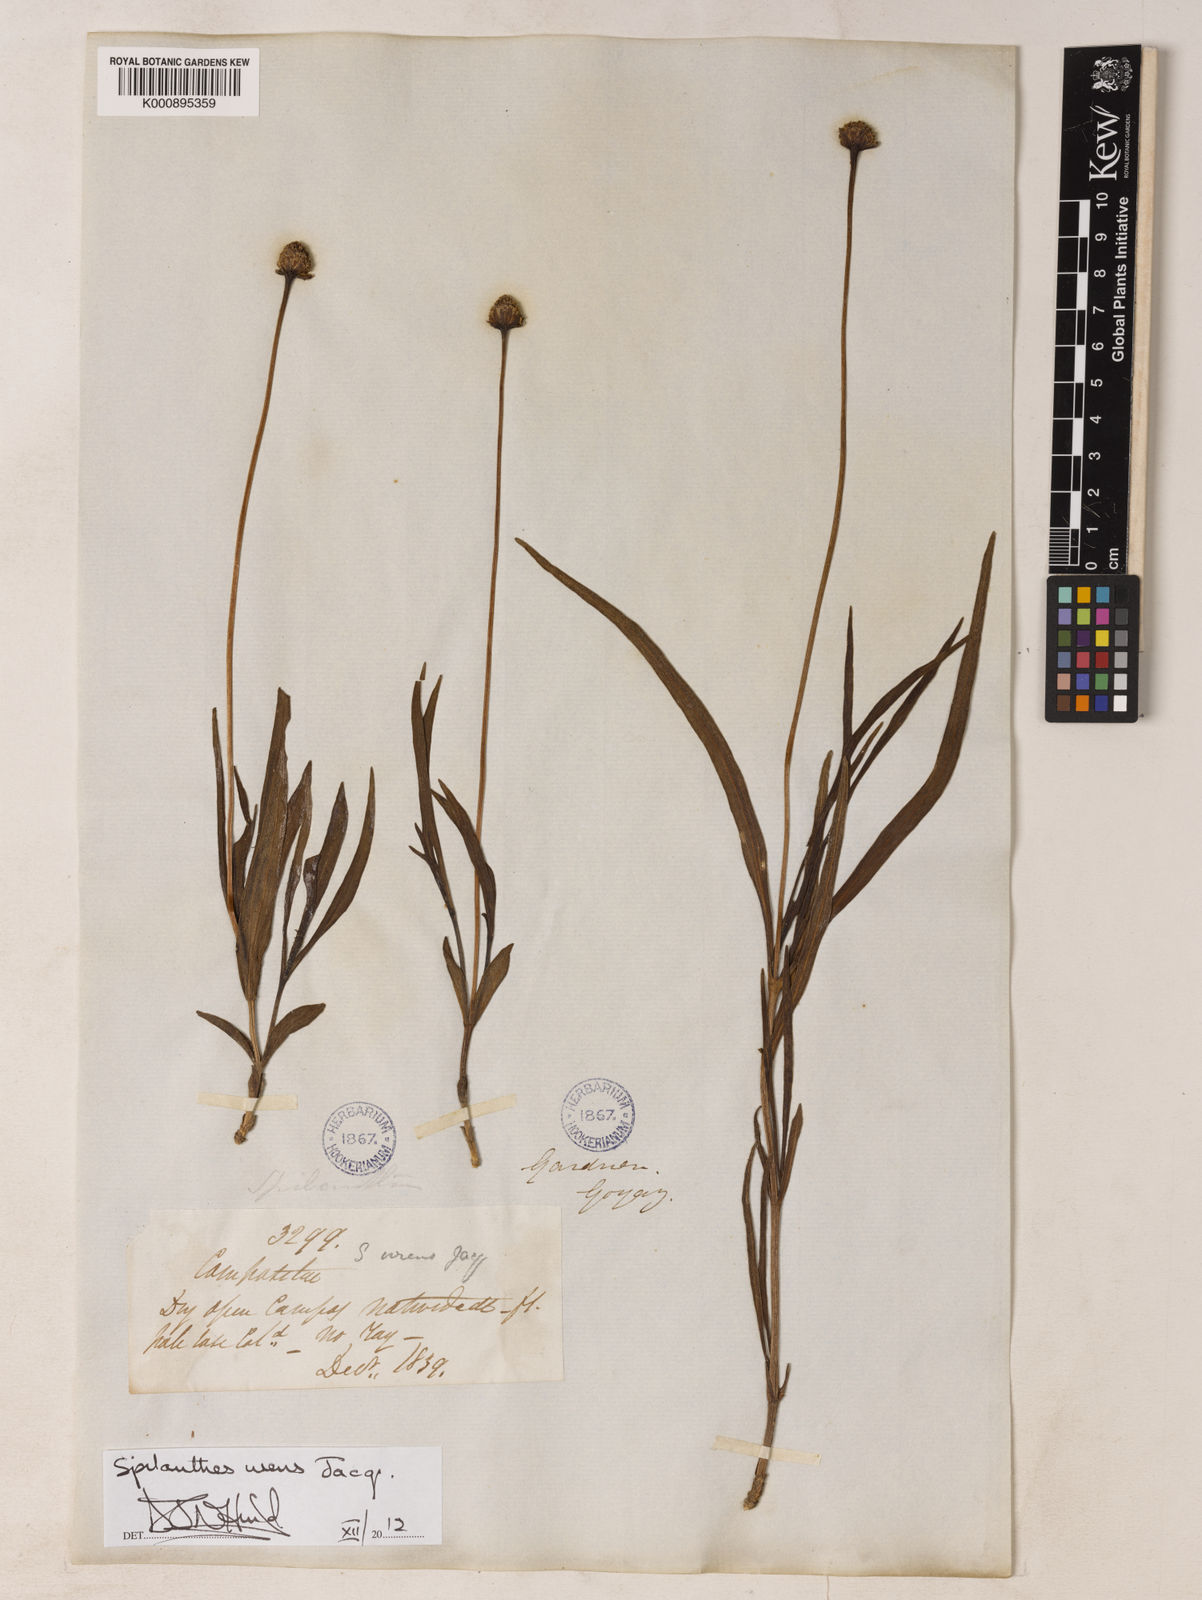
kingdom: Plantae
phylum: Tracheophyta
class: Magnoliopsida
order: Asterales
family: Asteraceae
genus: Spilanthes
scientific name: Spilanthes
